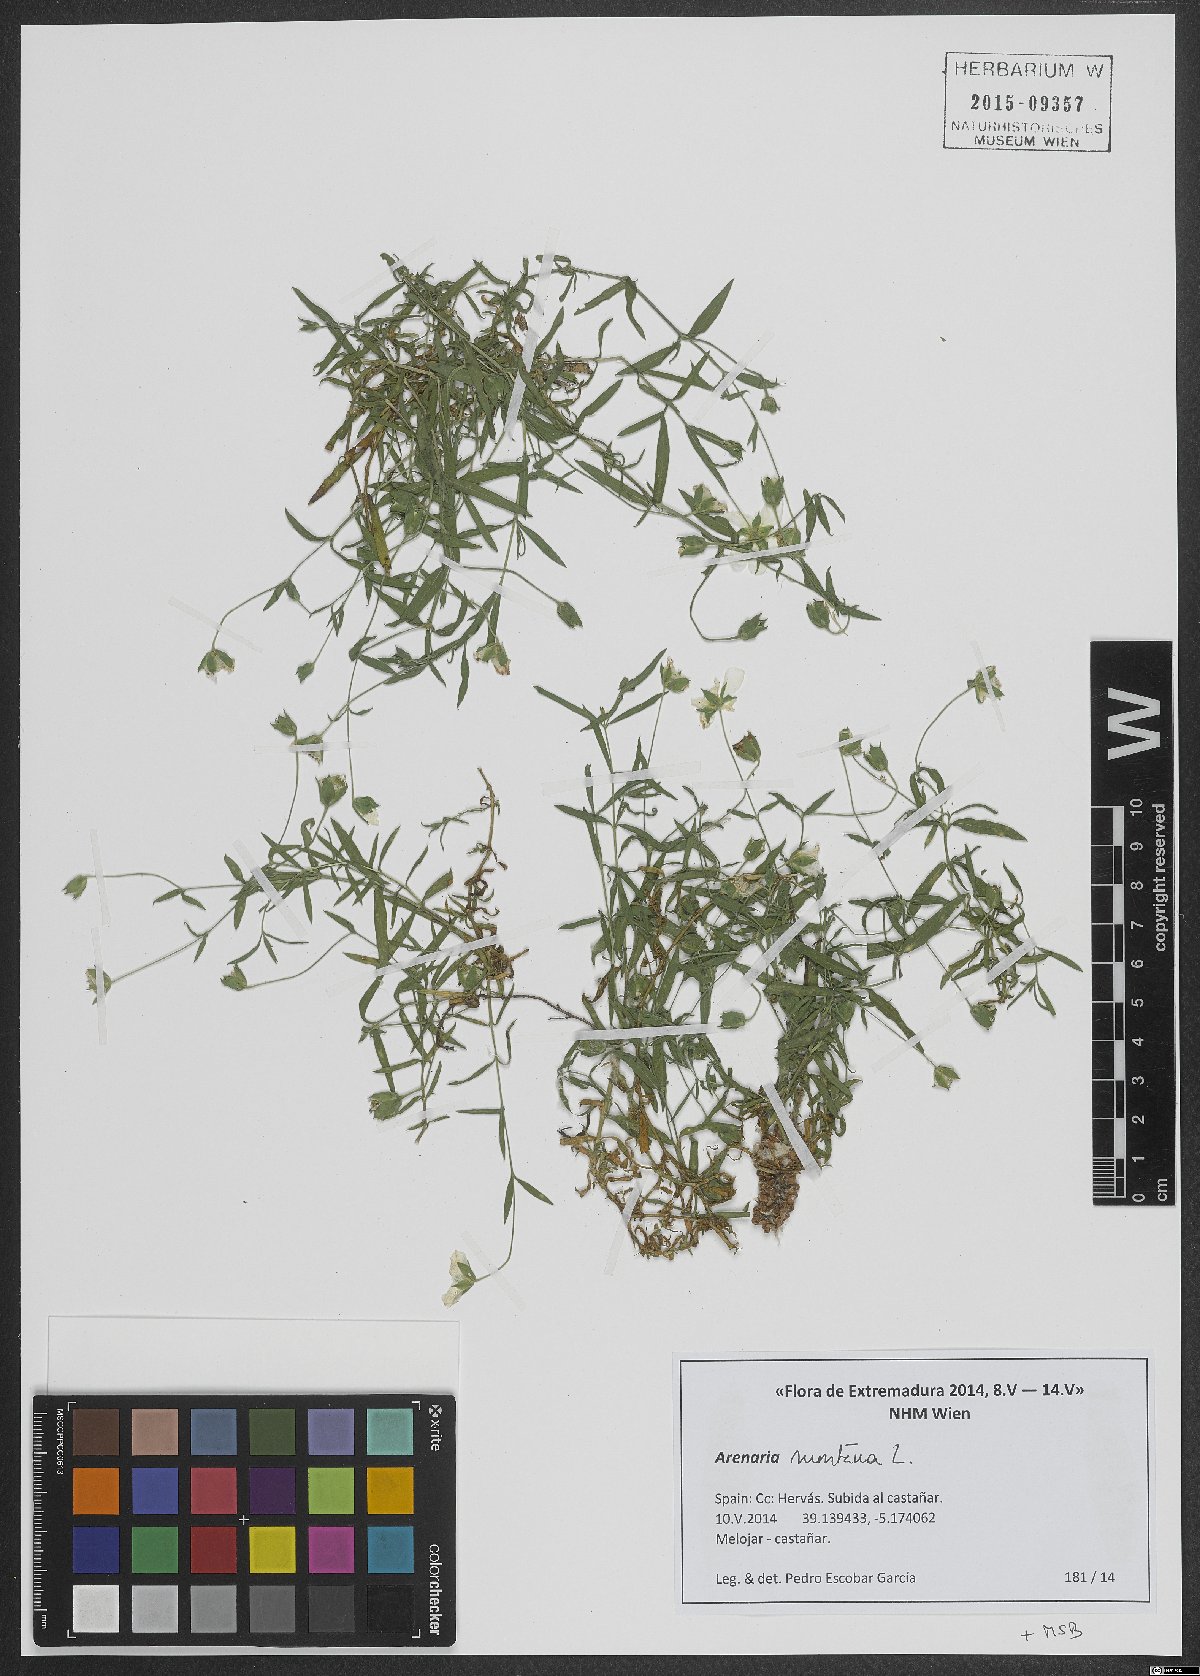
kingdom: Plantae
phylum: Tracheophyta
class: Magnoliopsida
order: Caryophyllales
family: Caryophyllaceae
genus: Arenaria
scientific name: Arenaria montana
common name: Mountain sandwort
